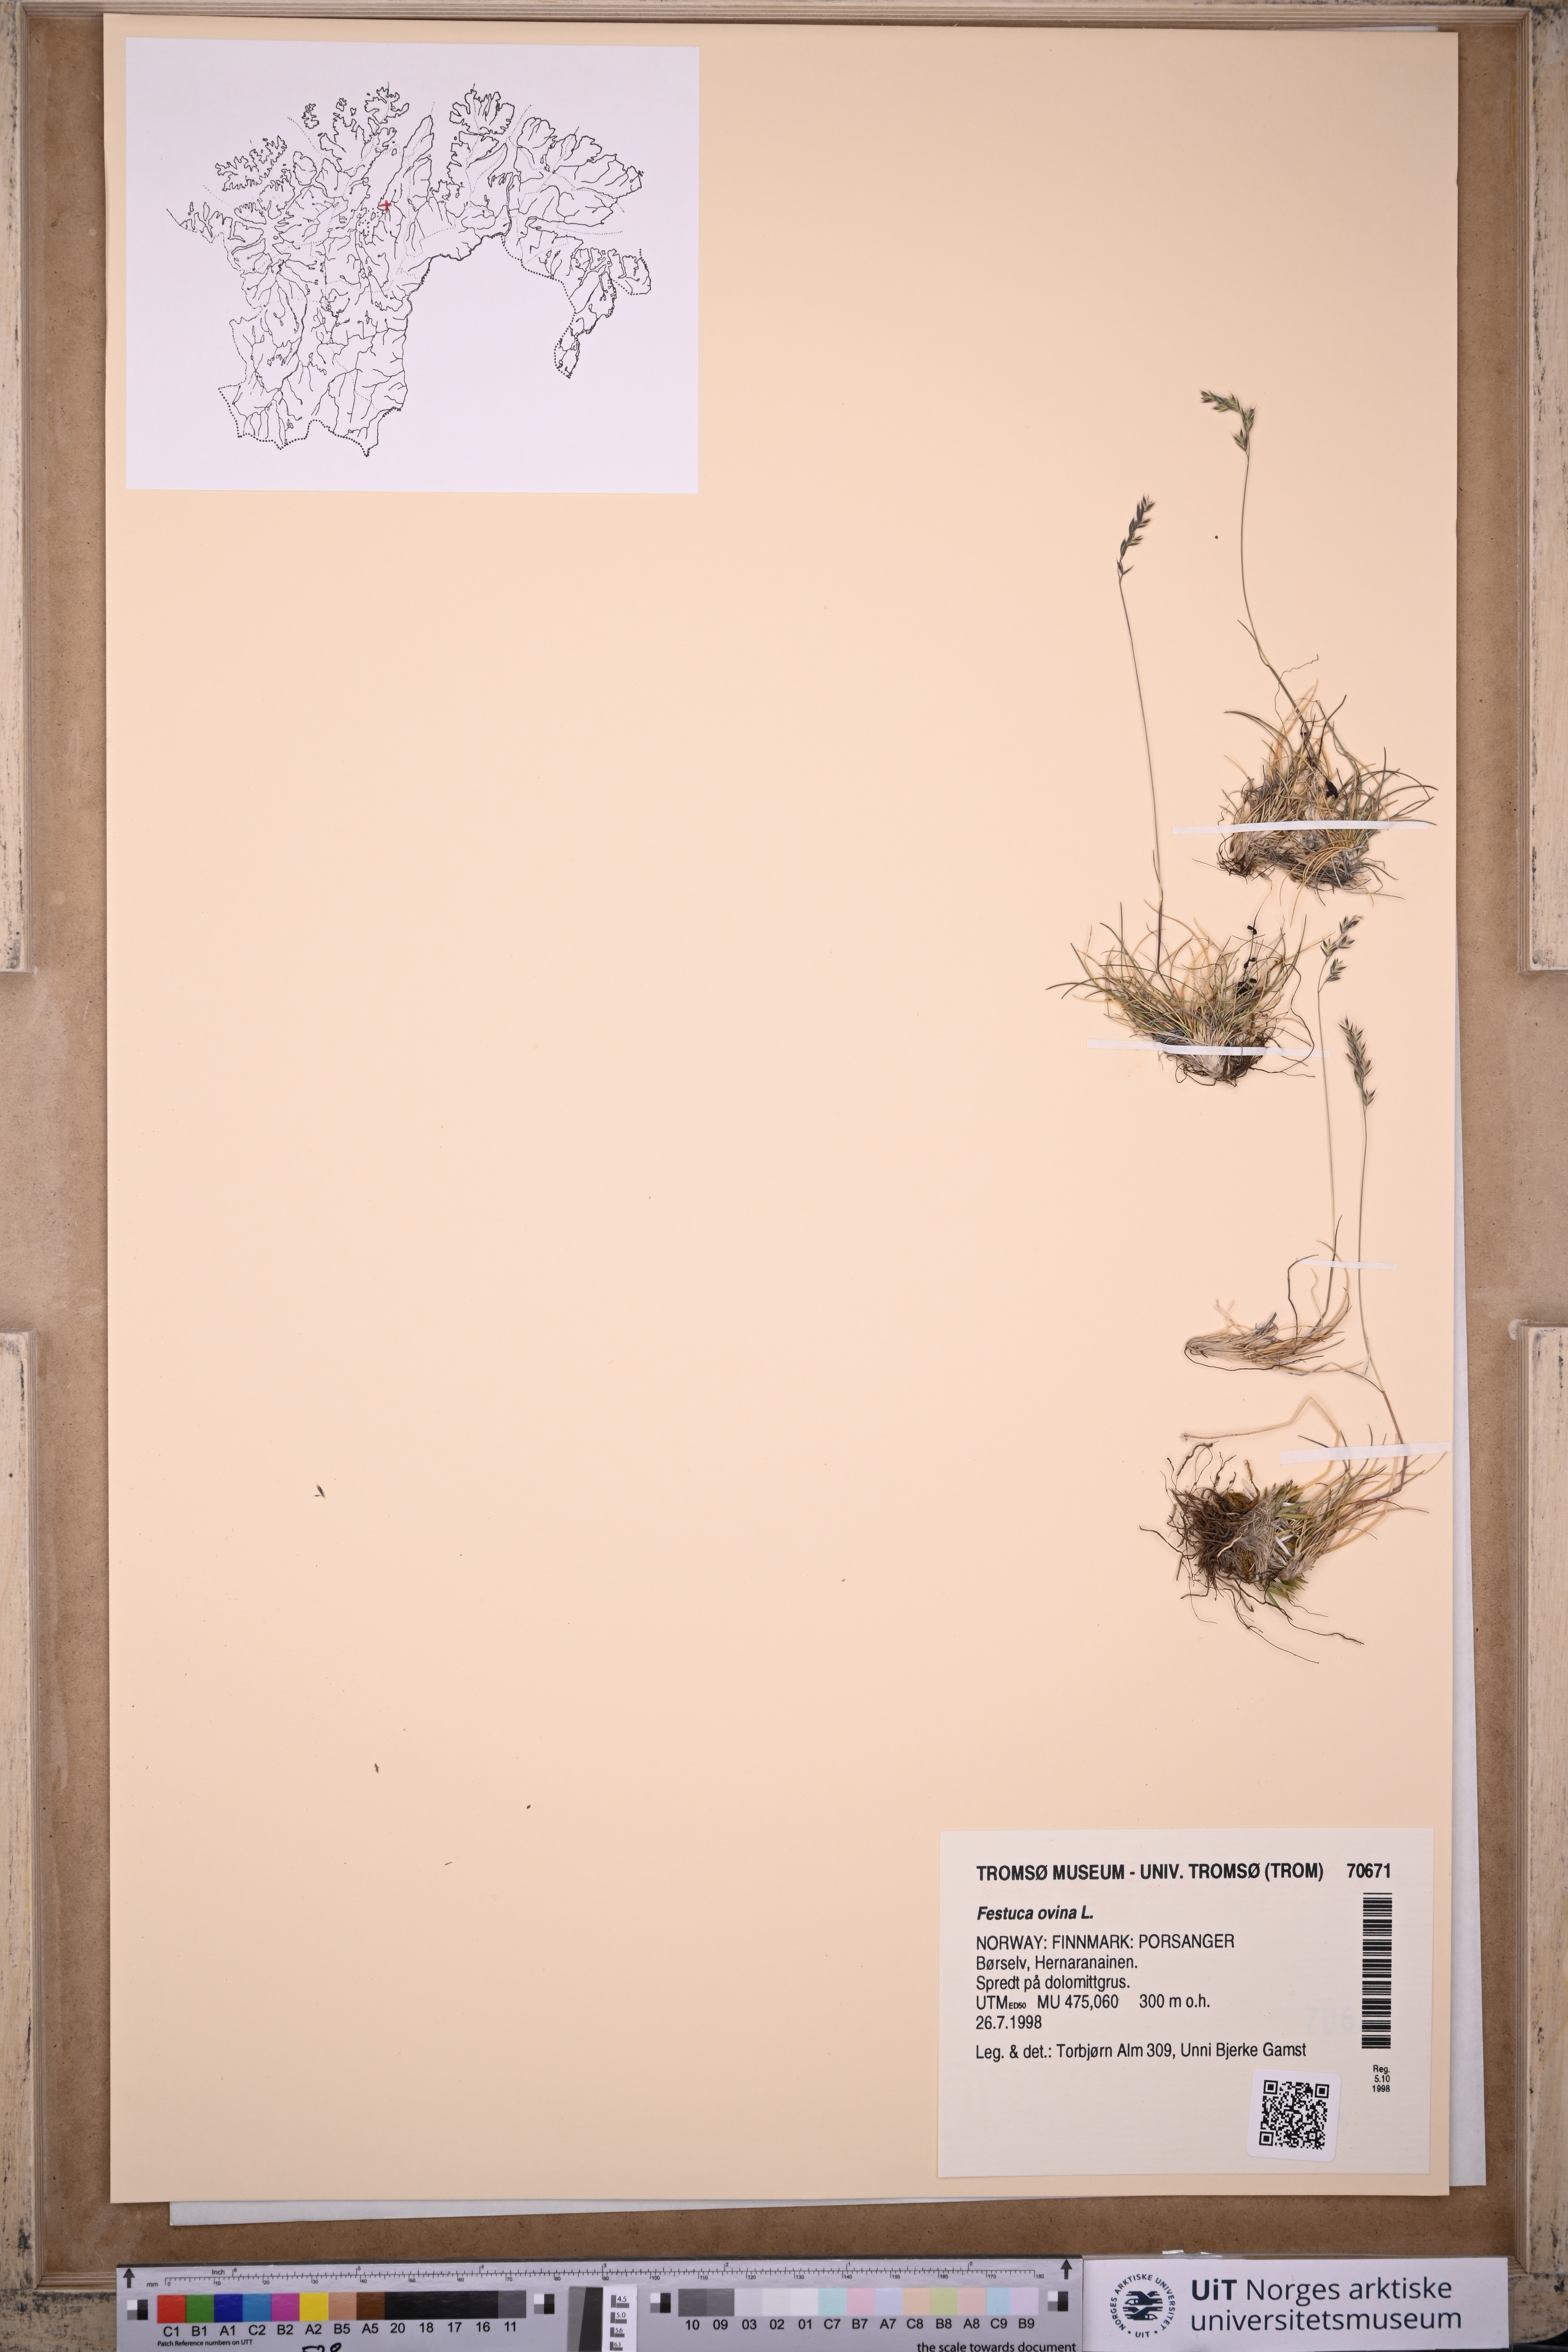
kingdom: Plantae
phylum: Tracheophyta
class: Liliopsida
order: Poales
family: Poaceae
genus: Festuca
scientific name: Festuca ovina
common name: Sheep fescue
